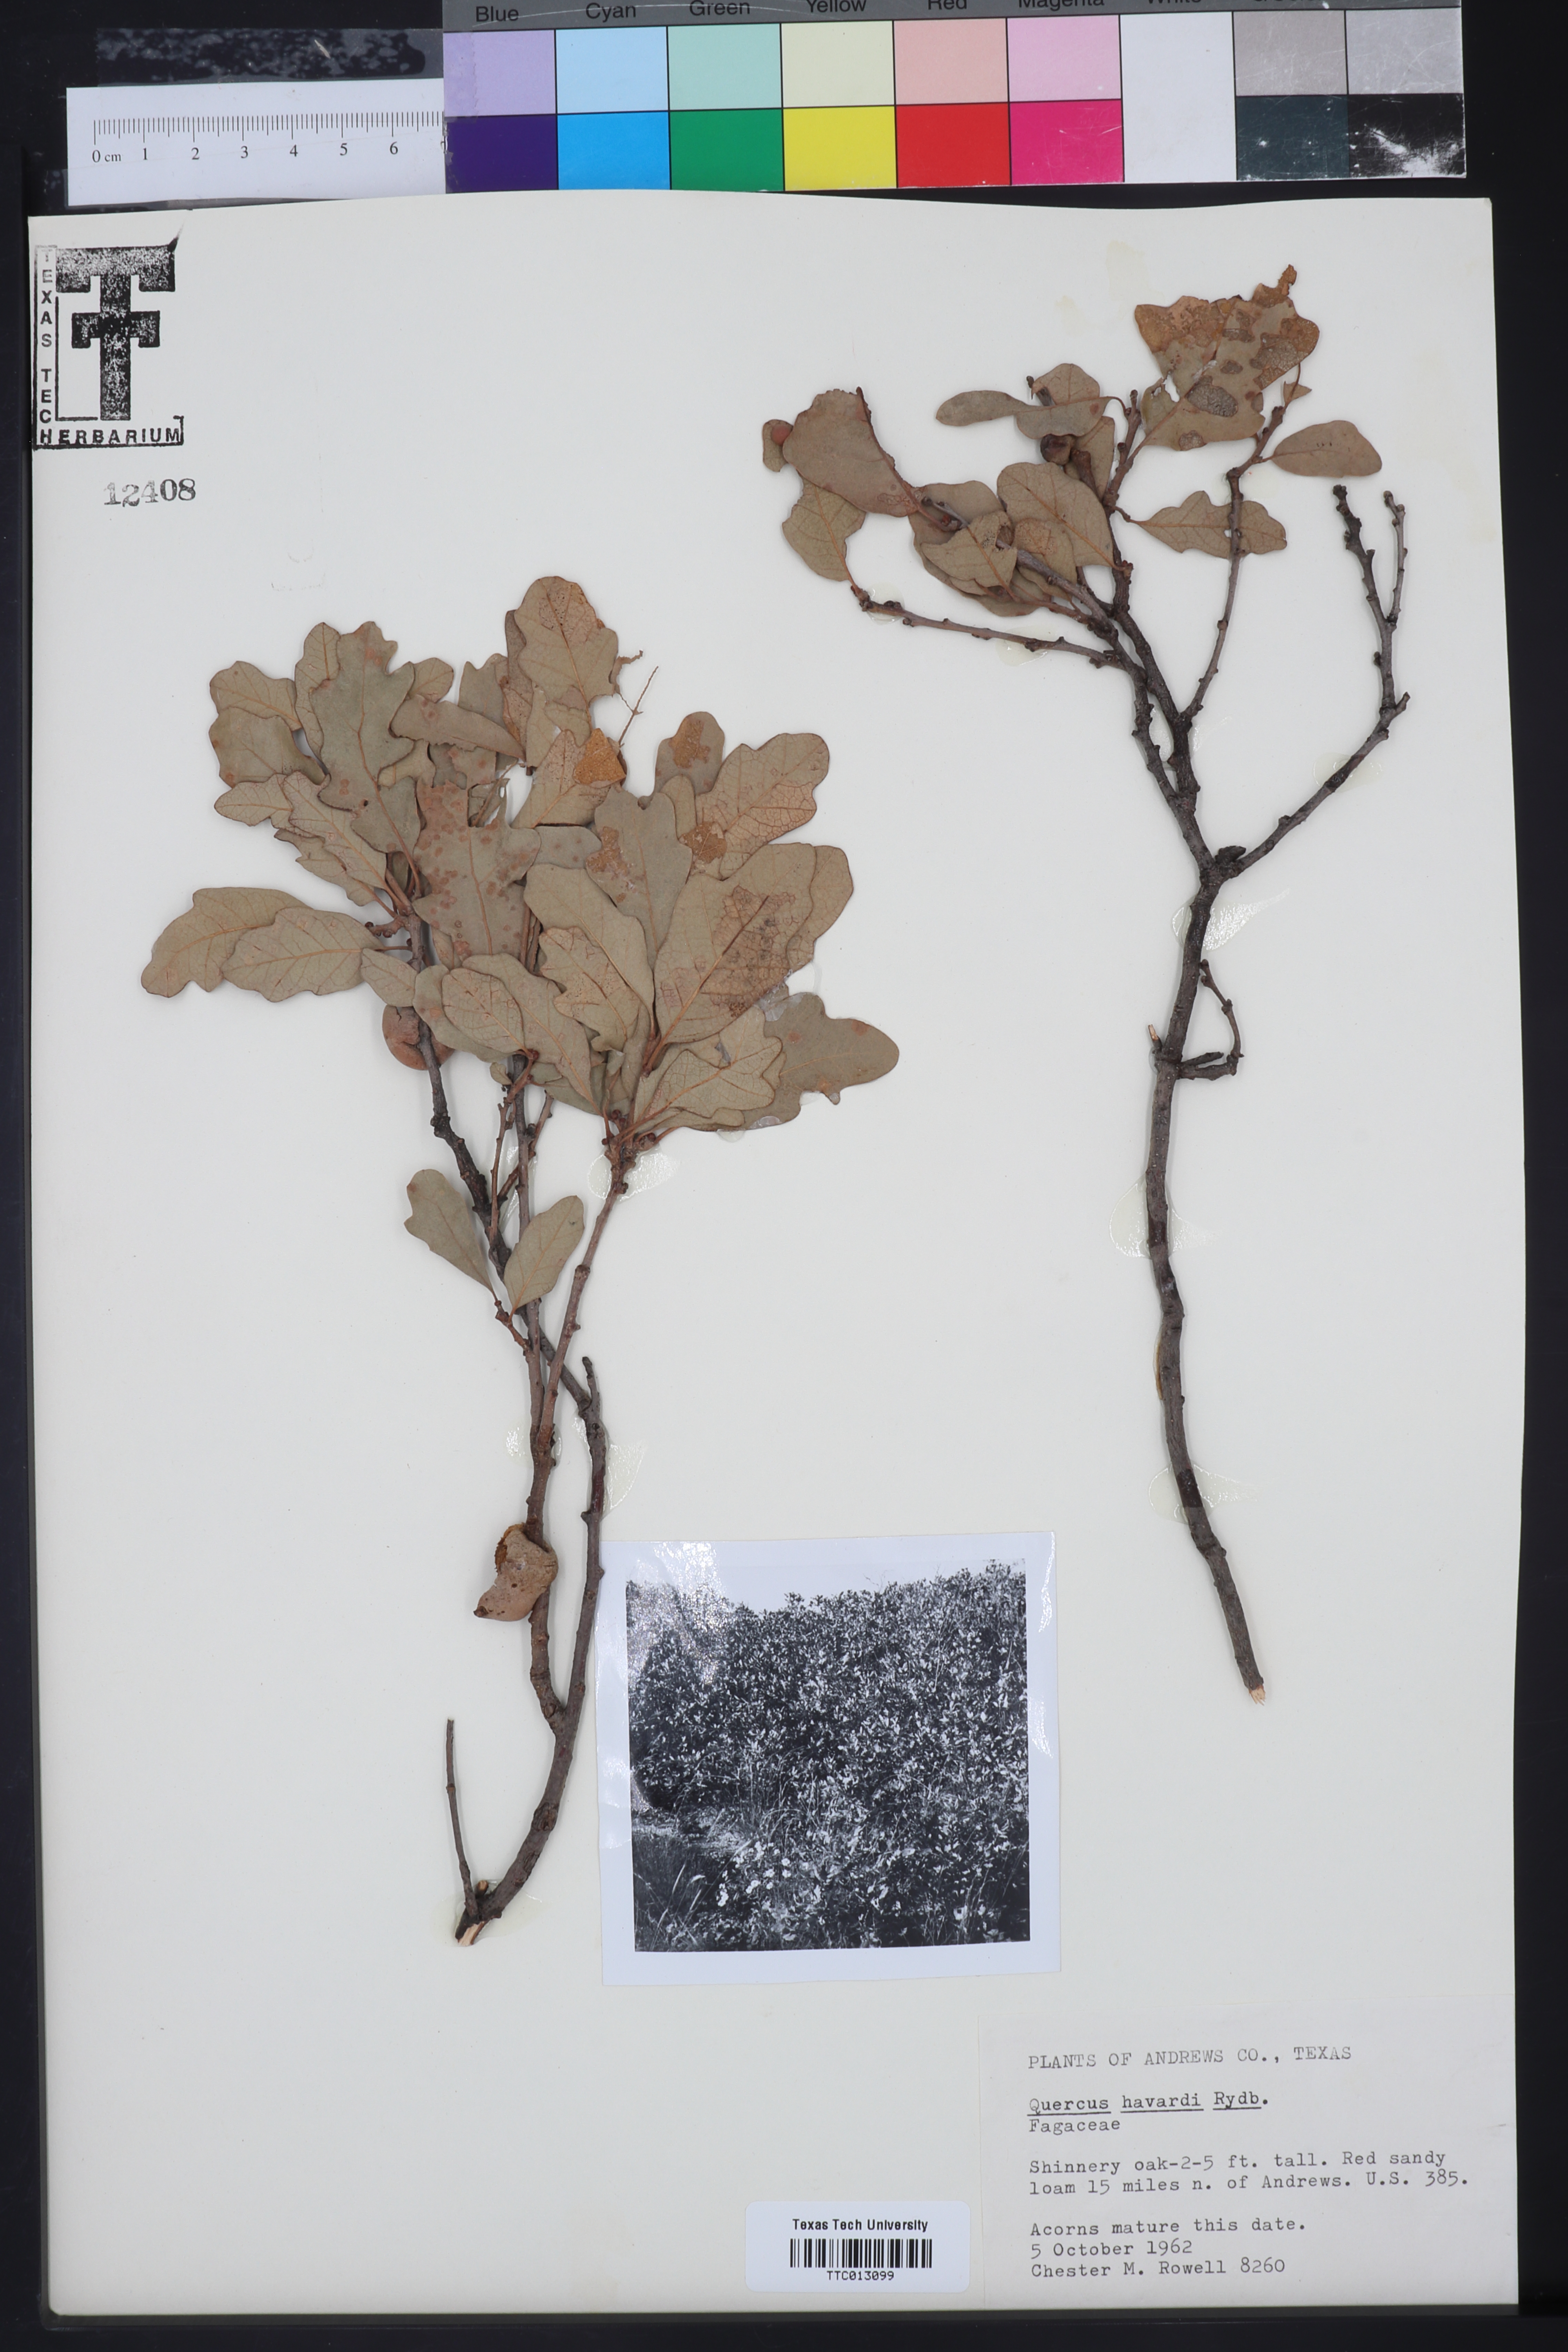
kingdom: Plantae
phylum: Tracheophyta
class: Magnoliopsida
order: Fagales
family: Fagaceae
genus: Quercus
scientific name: Quercus havardii
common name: Shinnery oak
